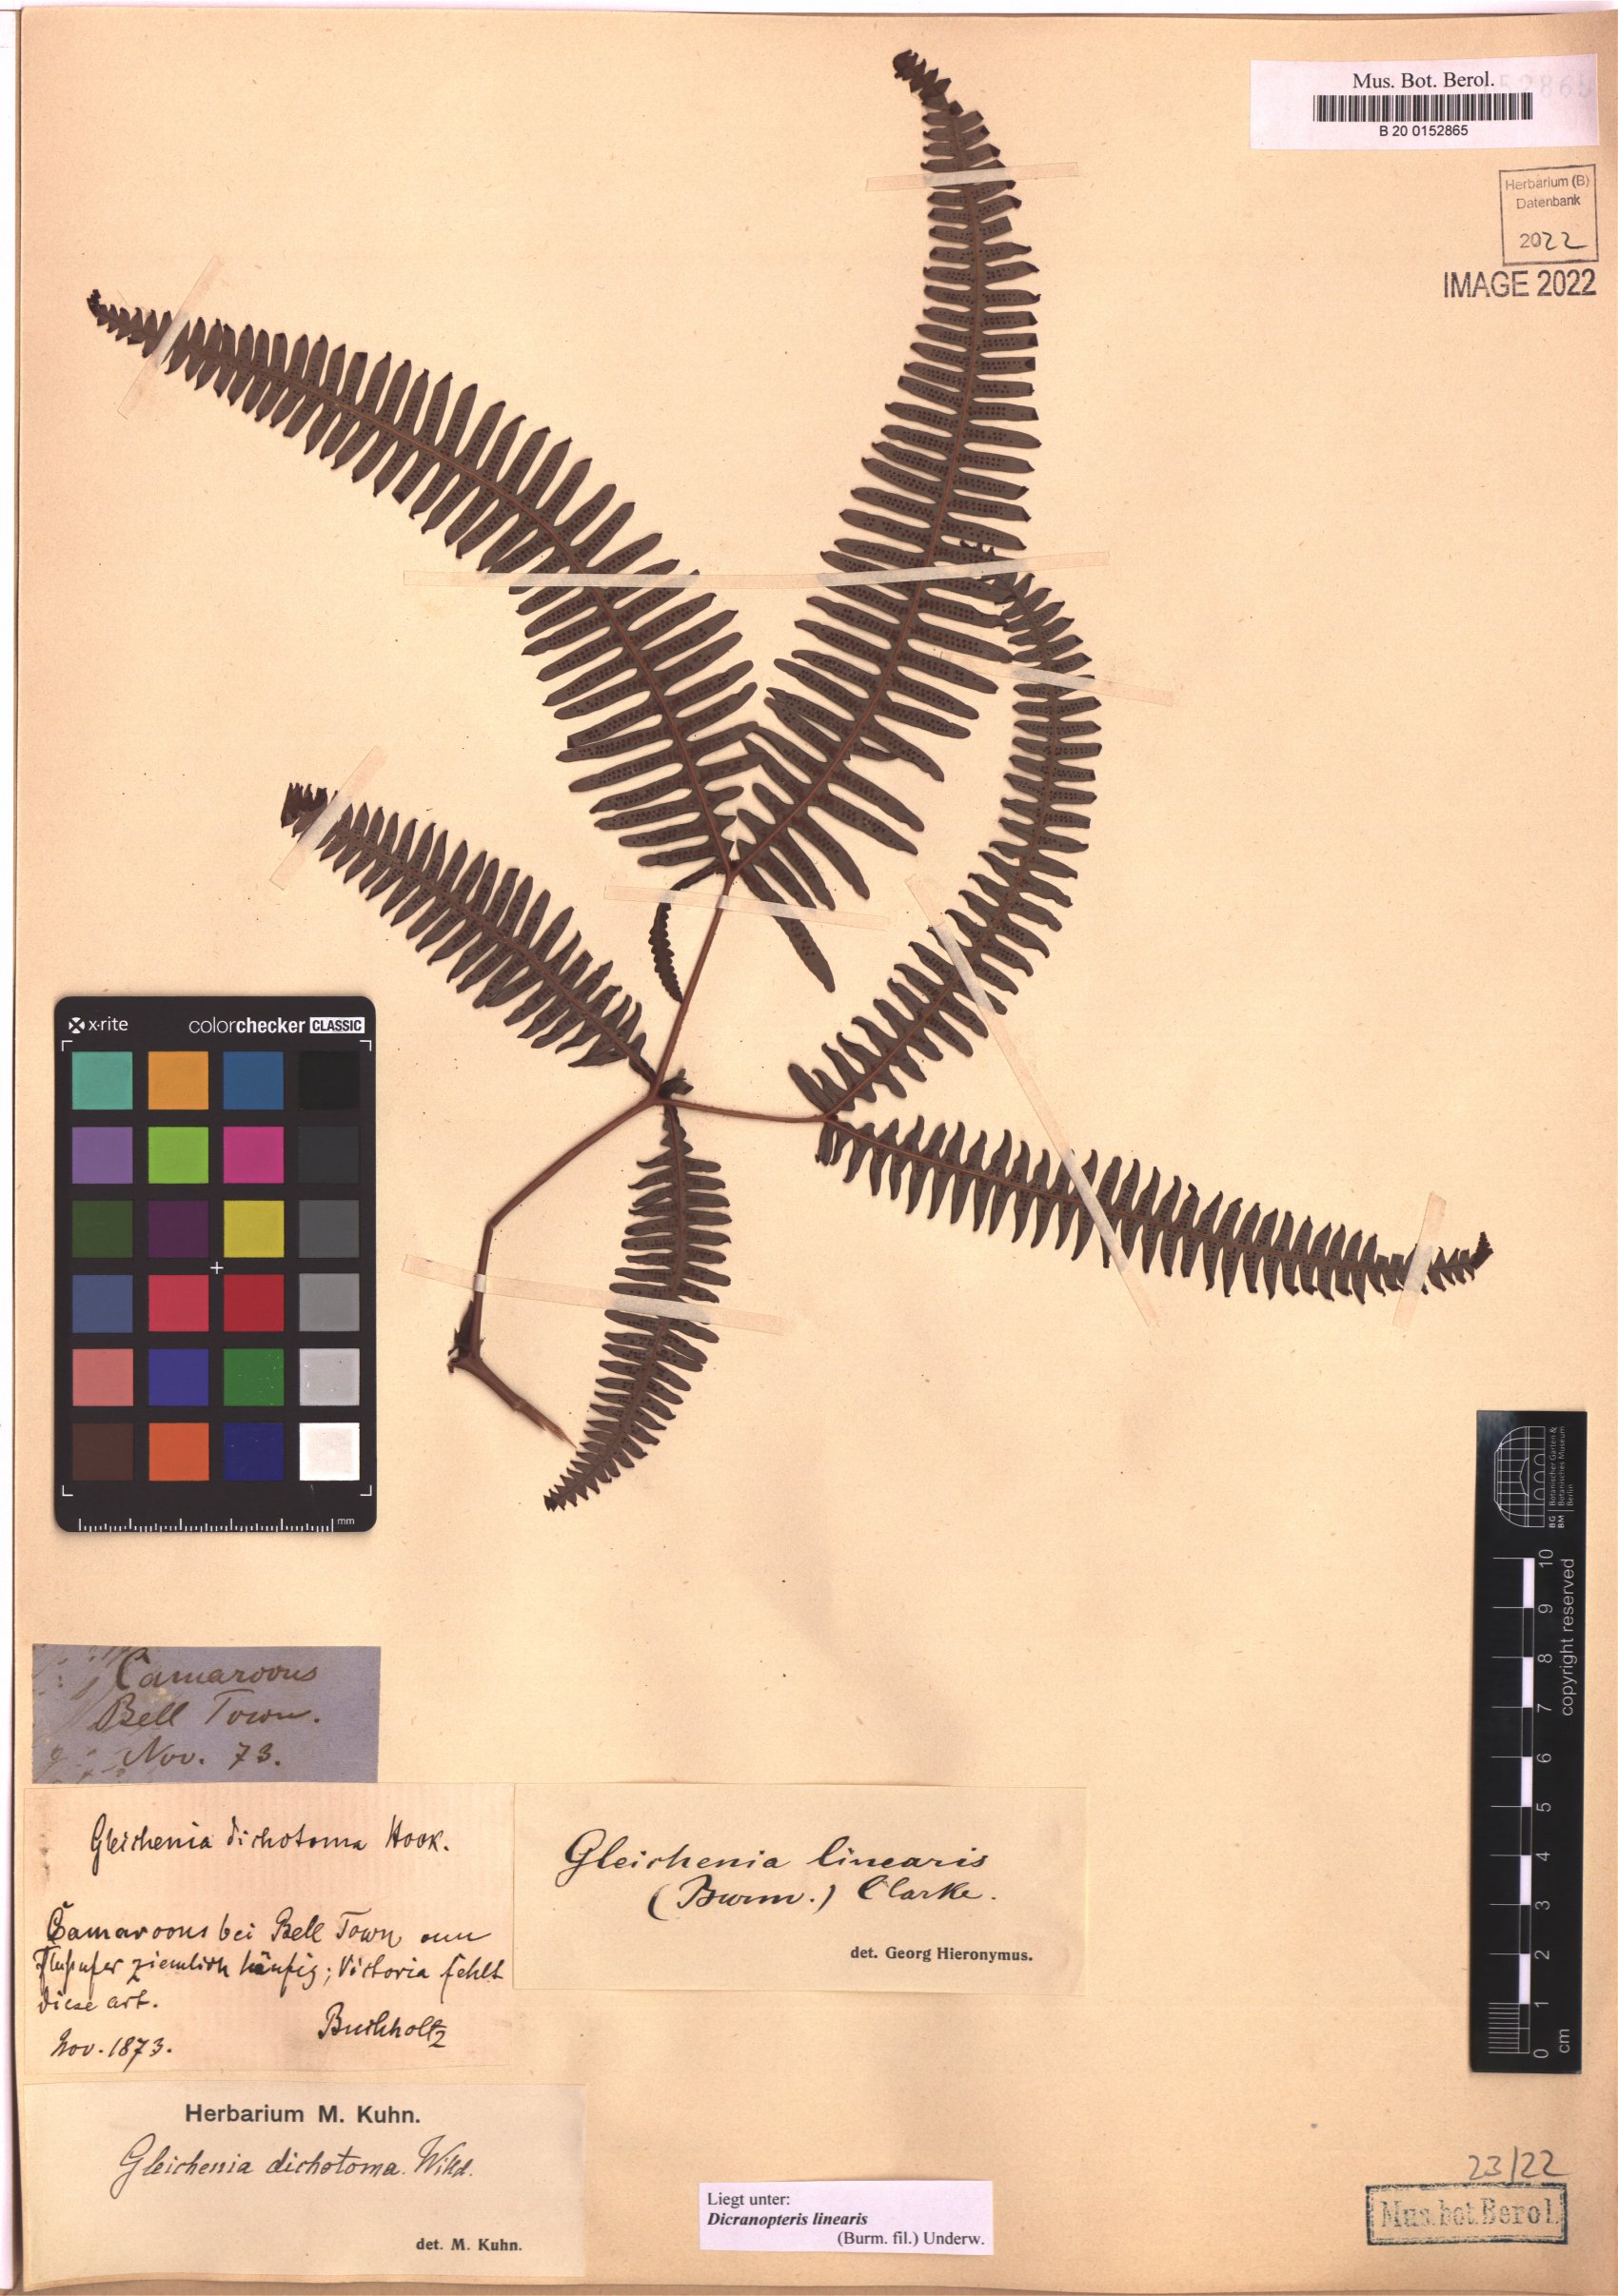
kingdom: Plantae
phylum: Tracheophyta
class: Polypodiopsida
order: Gleicheniales
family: Gleicheniaceae
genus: Dicranopteris
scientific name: Dicranopteris linearis
